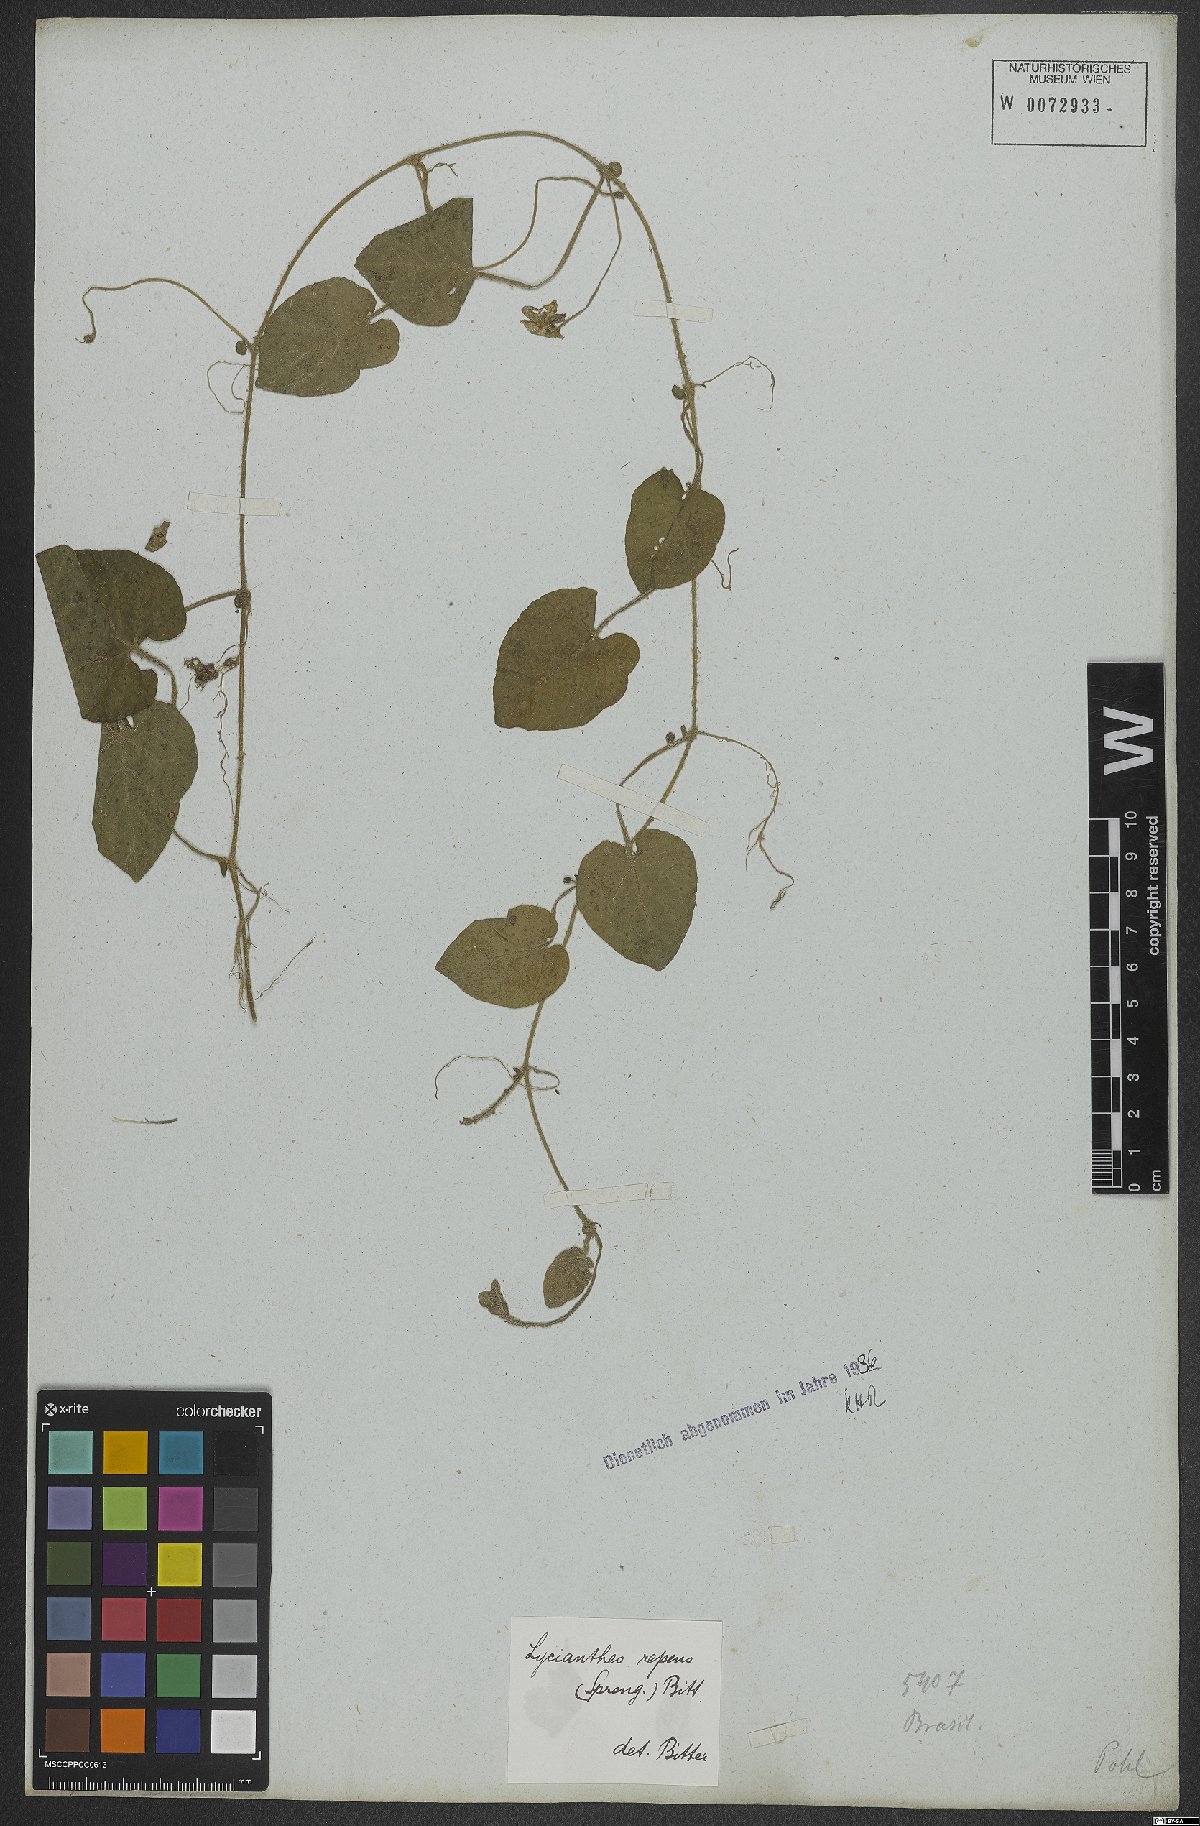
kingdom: Plantae
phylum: Tracheophyta
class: Magnoliopsida
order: Solanales
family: Solanaceae
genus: Lycianthes
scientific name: Lycianthes repens
